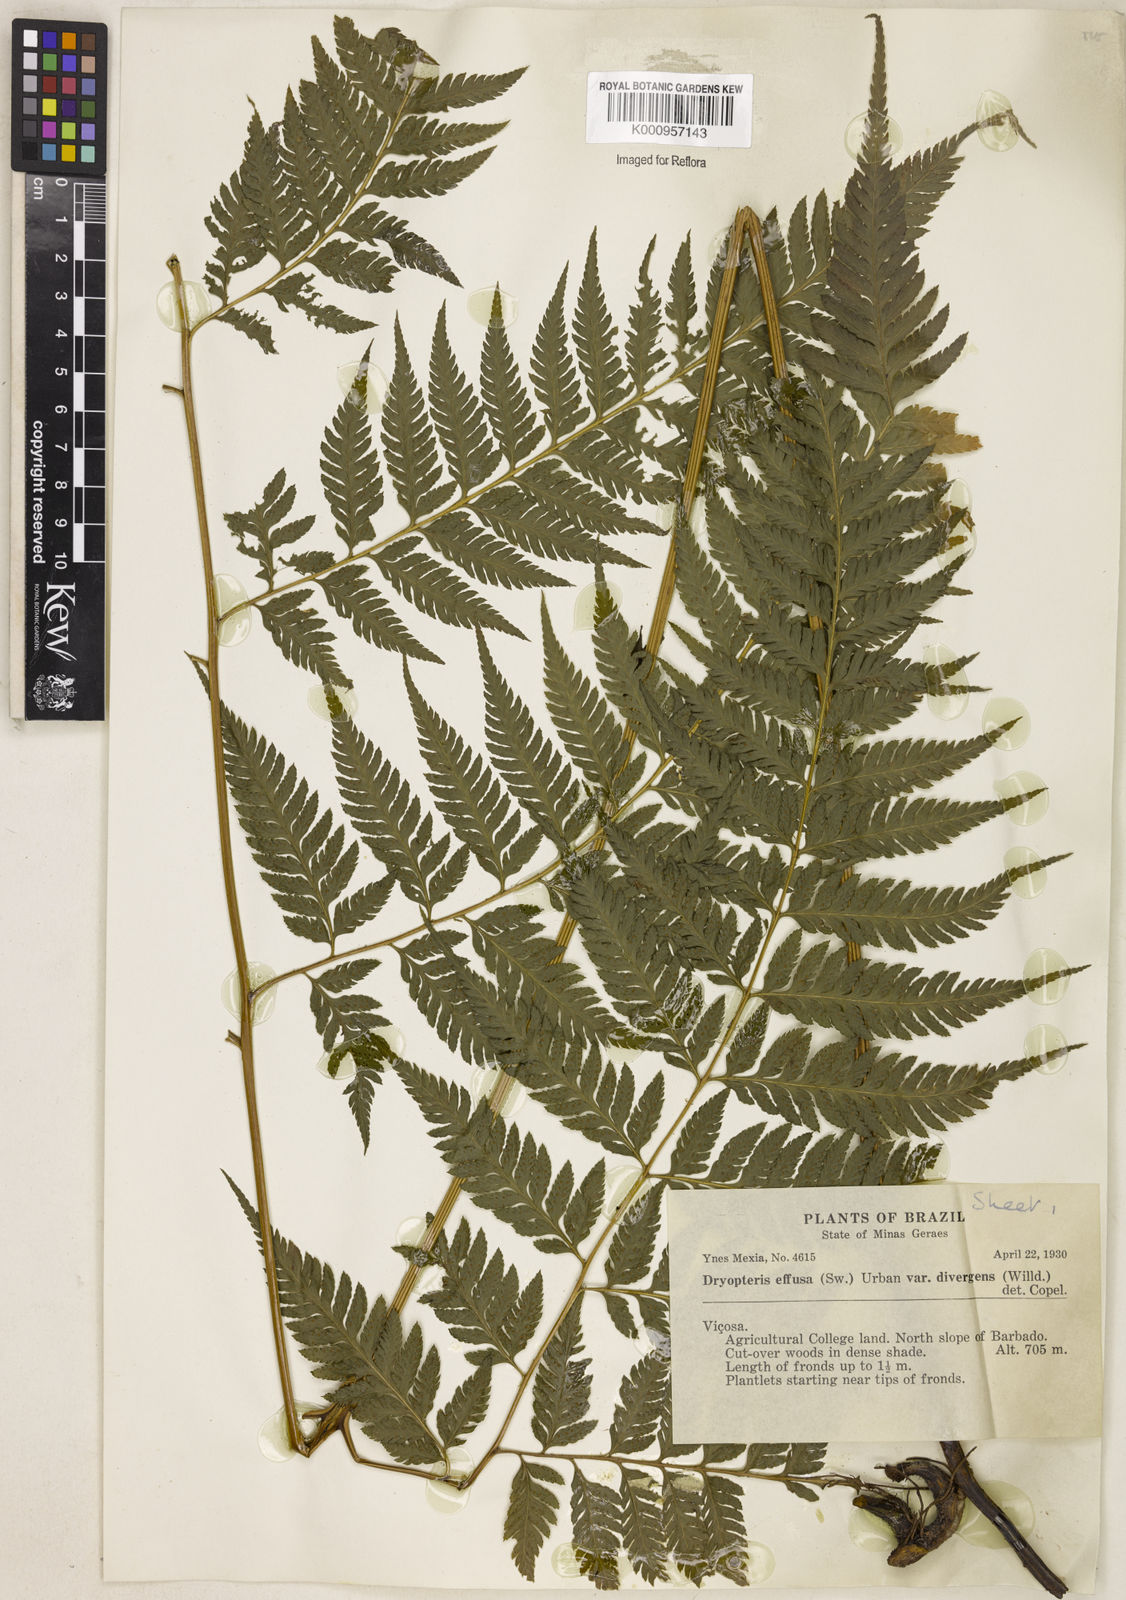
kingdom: Plantae
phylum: Tracheophyta
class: Polypodiopsida
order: Polypodiales
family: Dryopteridaceae
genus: Parapolystichum
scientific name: Parapolystichum effusum
